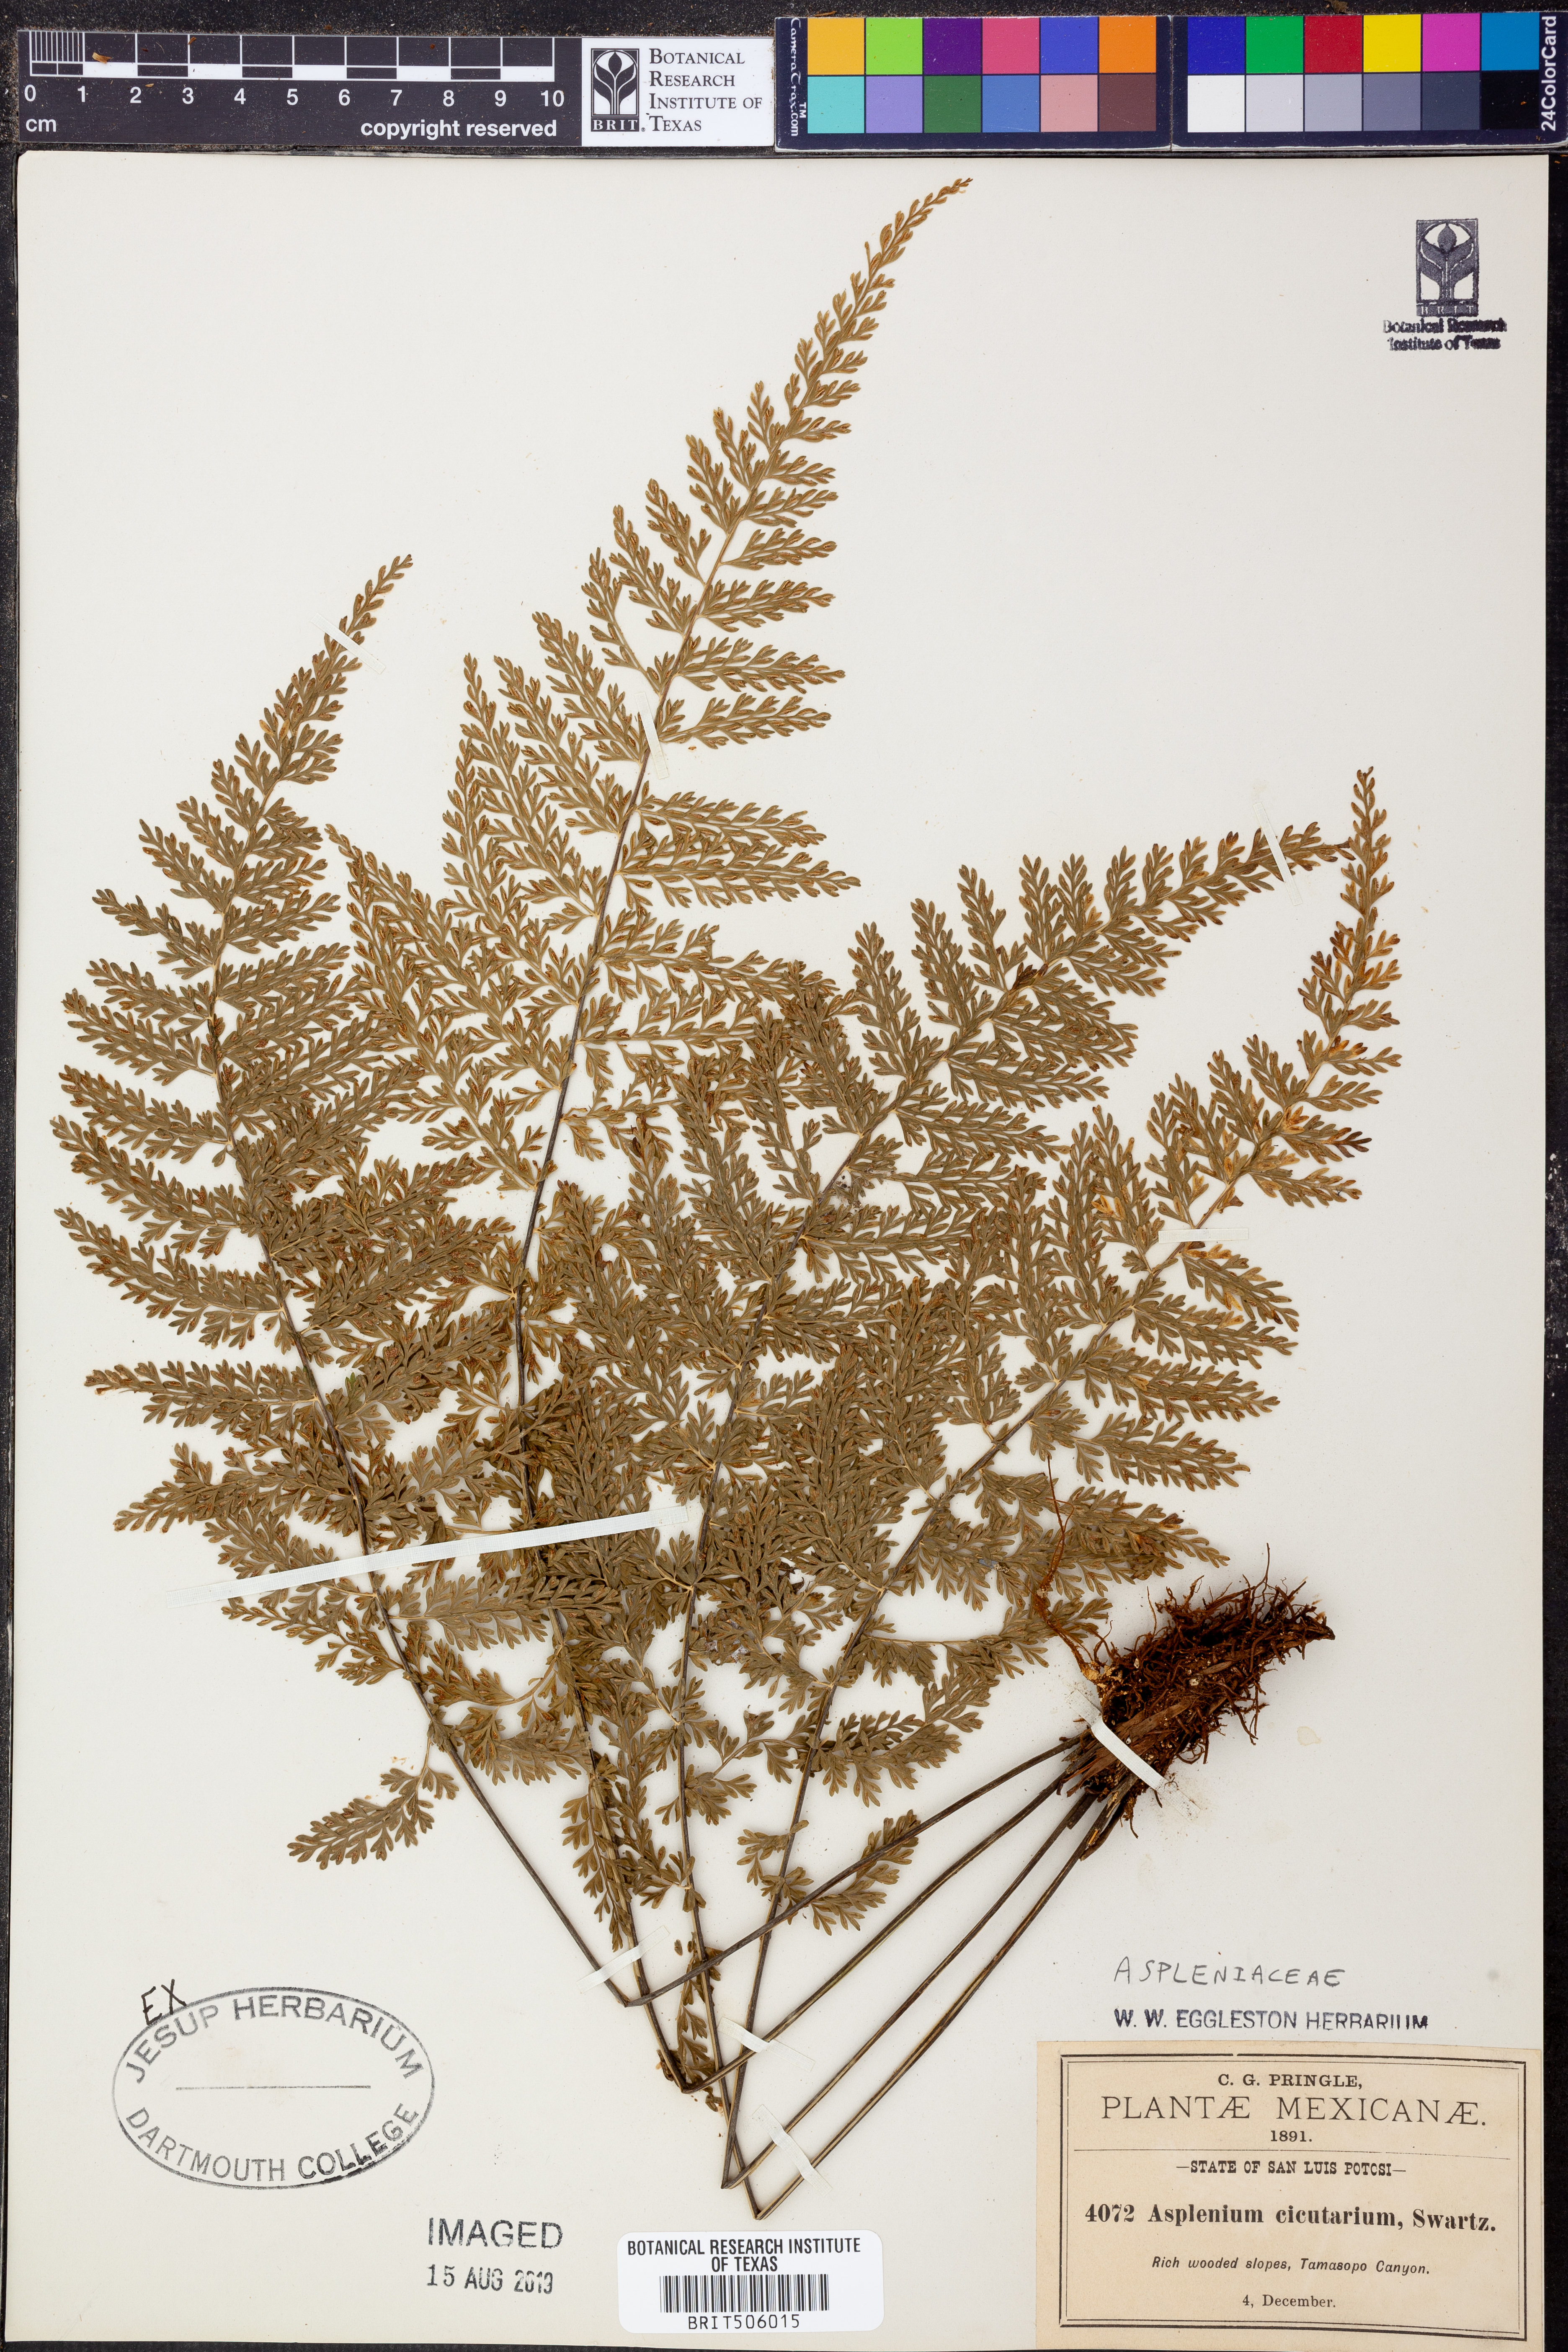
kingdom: Plantae
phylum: Tracheophyta
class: Polypodiopsida
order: Polypodiales
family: Aspleniaceae
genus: Asplenium
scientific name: Asplenium cristatum
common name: Parsley spleenwort
